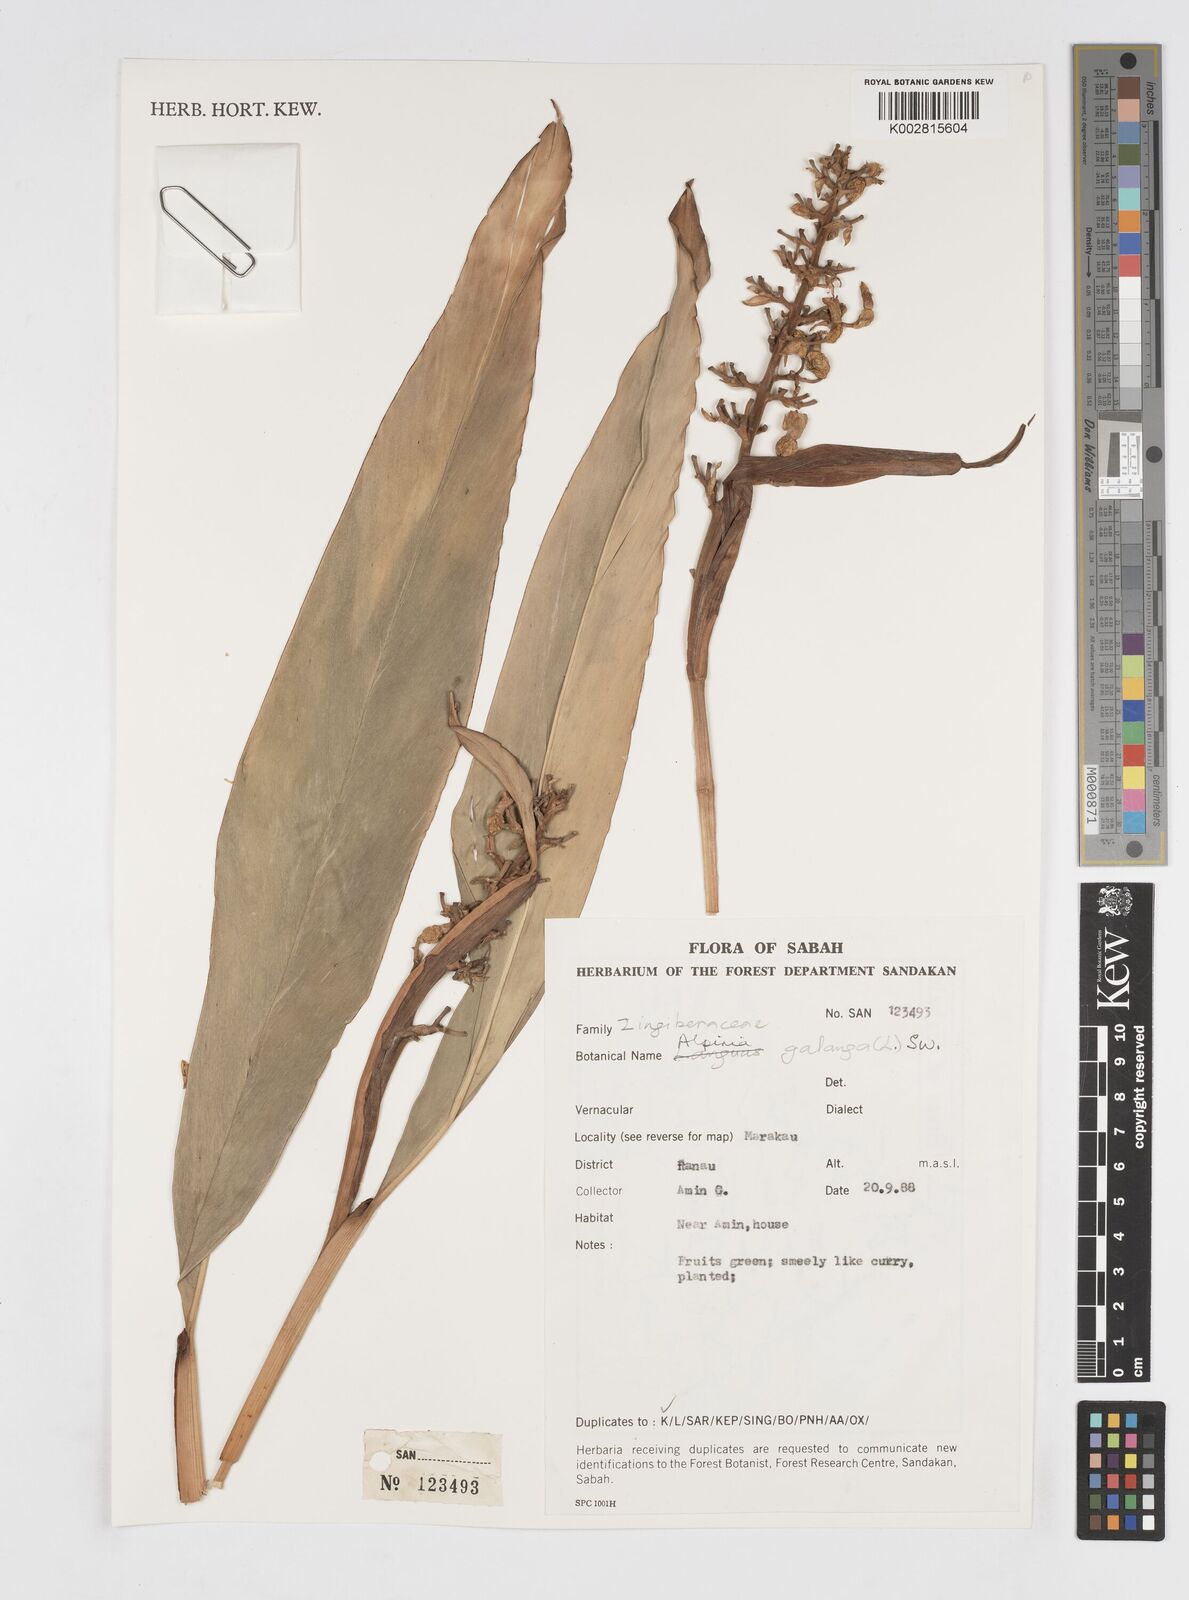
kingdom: Plantae
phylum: Tracheophyta
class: Liliopsida
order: Zingiberales
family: Zingiberaceae
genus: Alpinia
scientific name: Alpinia galanga
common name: Siamese-ginger
